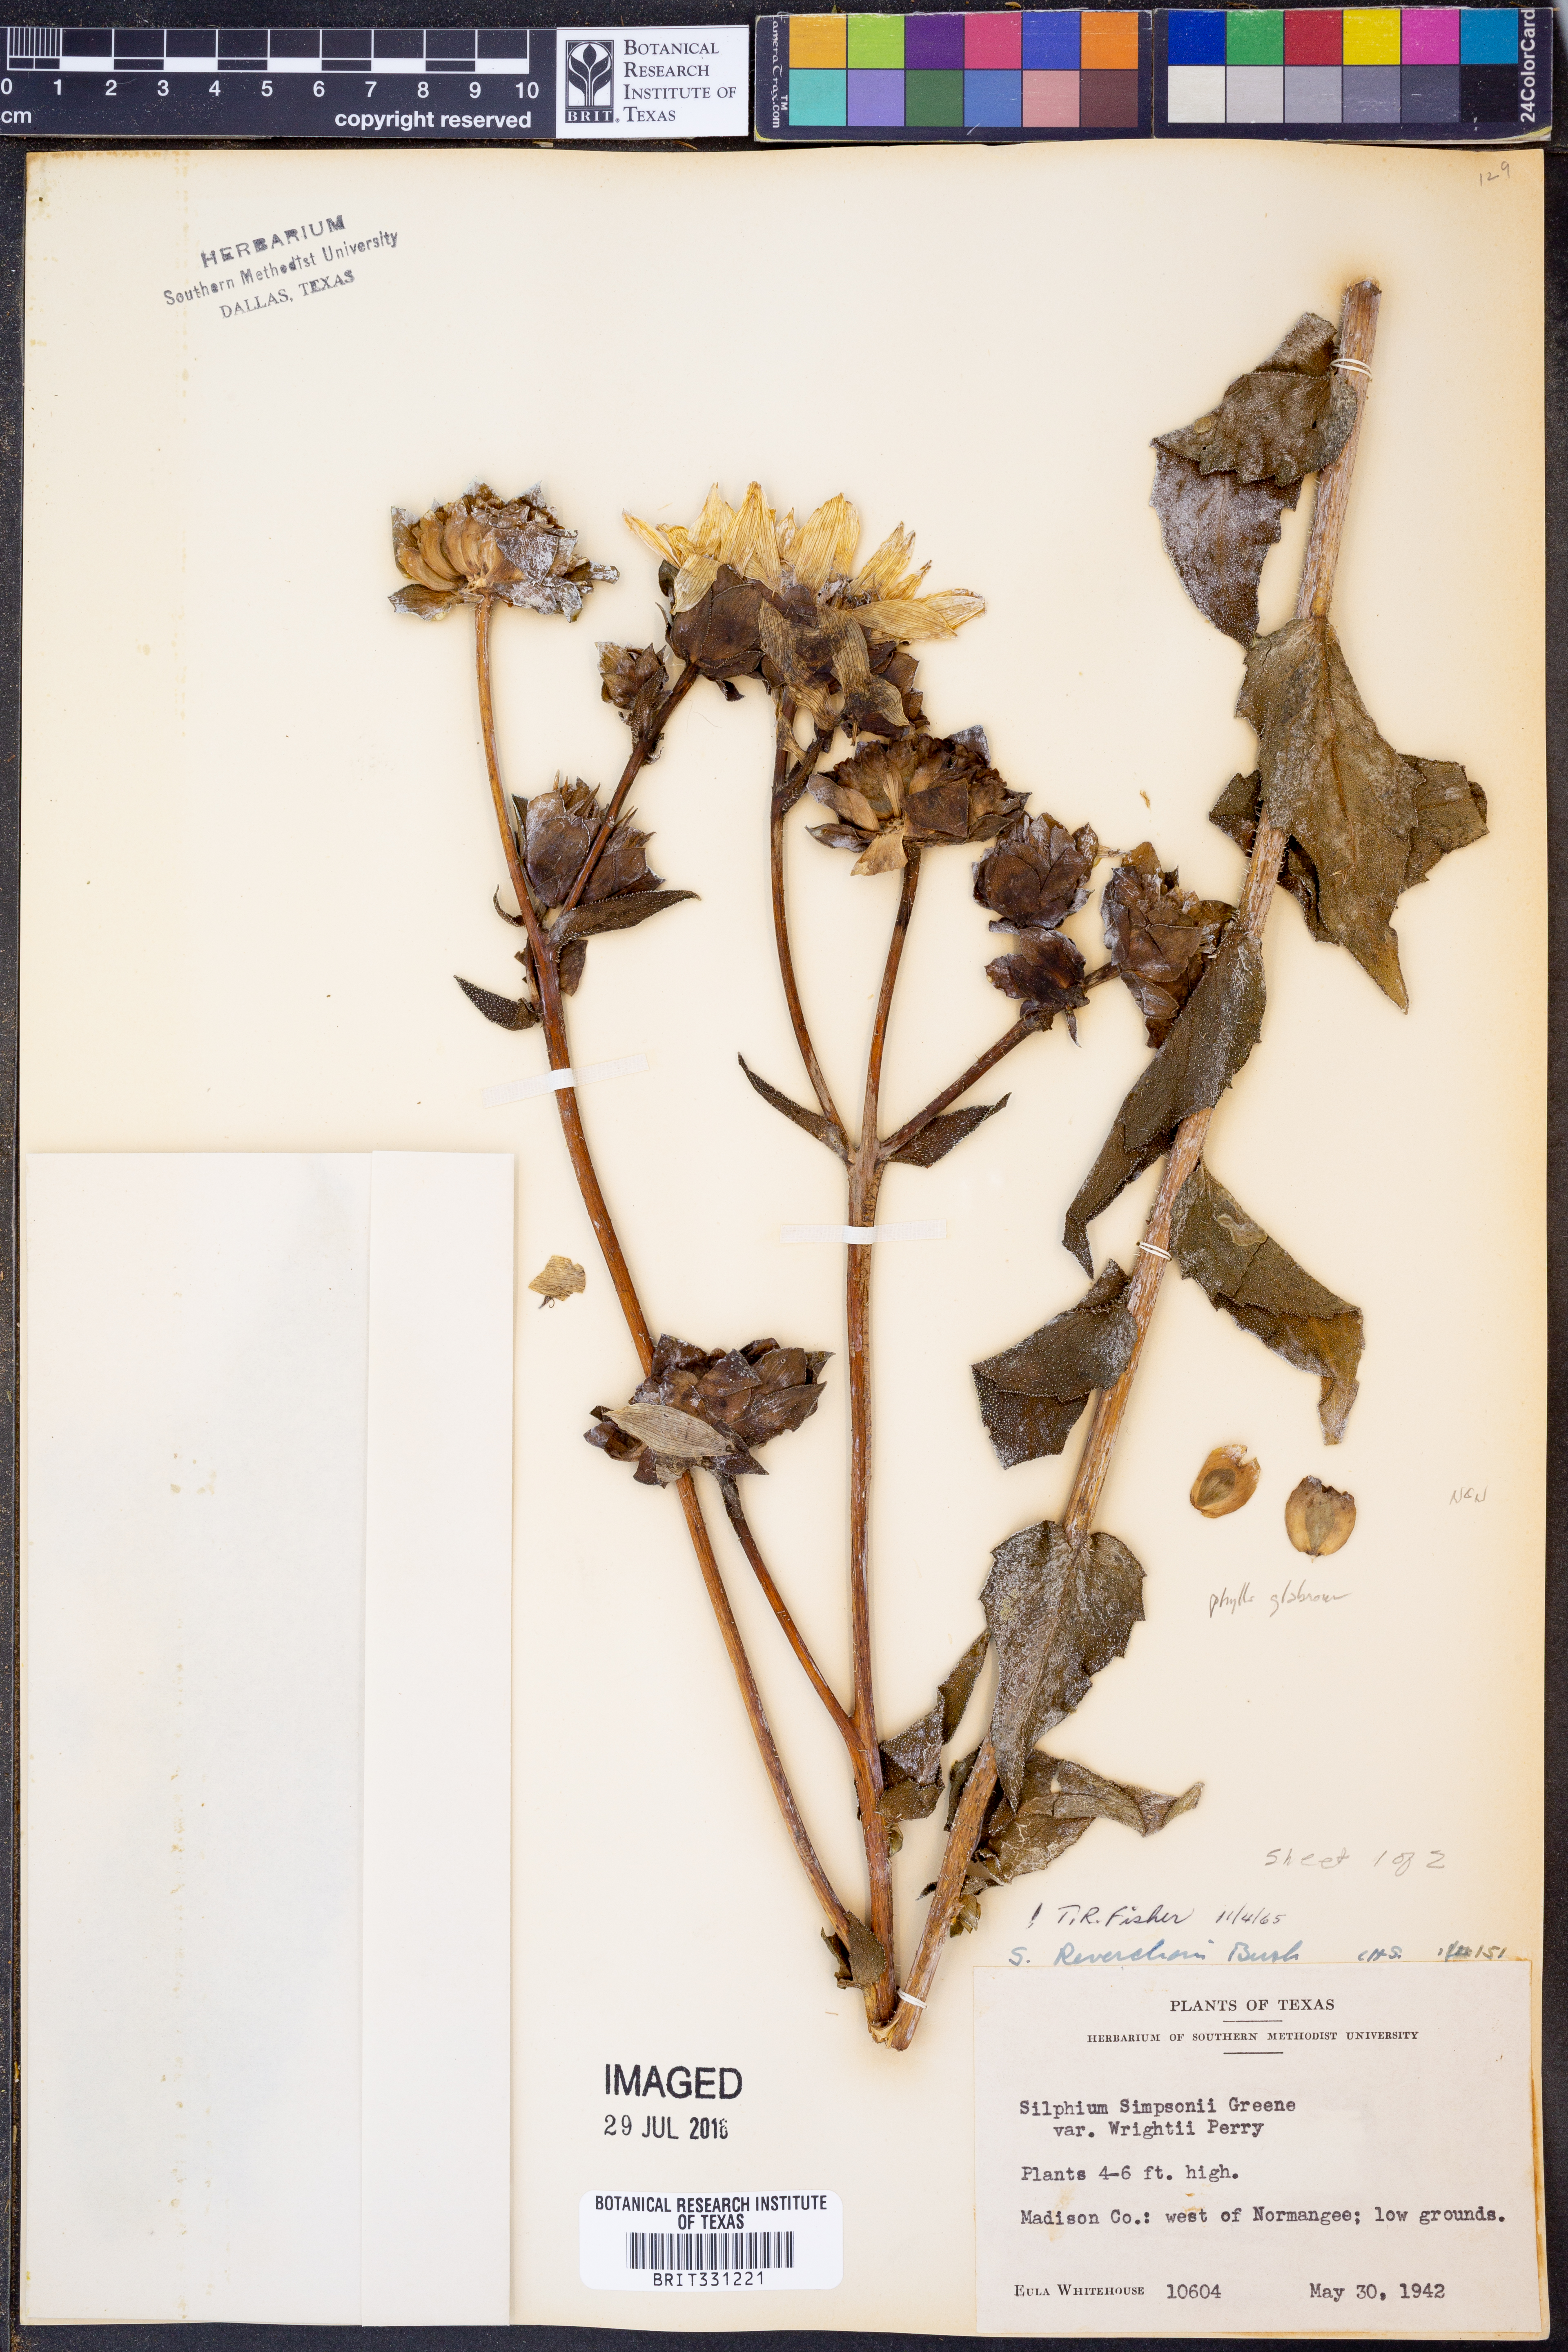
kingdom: Plantae
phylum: Tracheophyta
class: Magnoliopsida
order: Asterales
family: Asteraceae
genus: Silphium
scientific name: Silphium radula
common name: Roughleaf rosinweed
